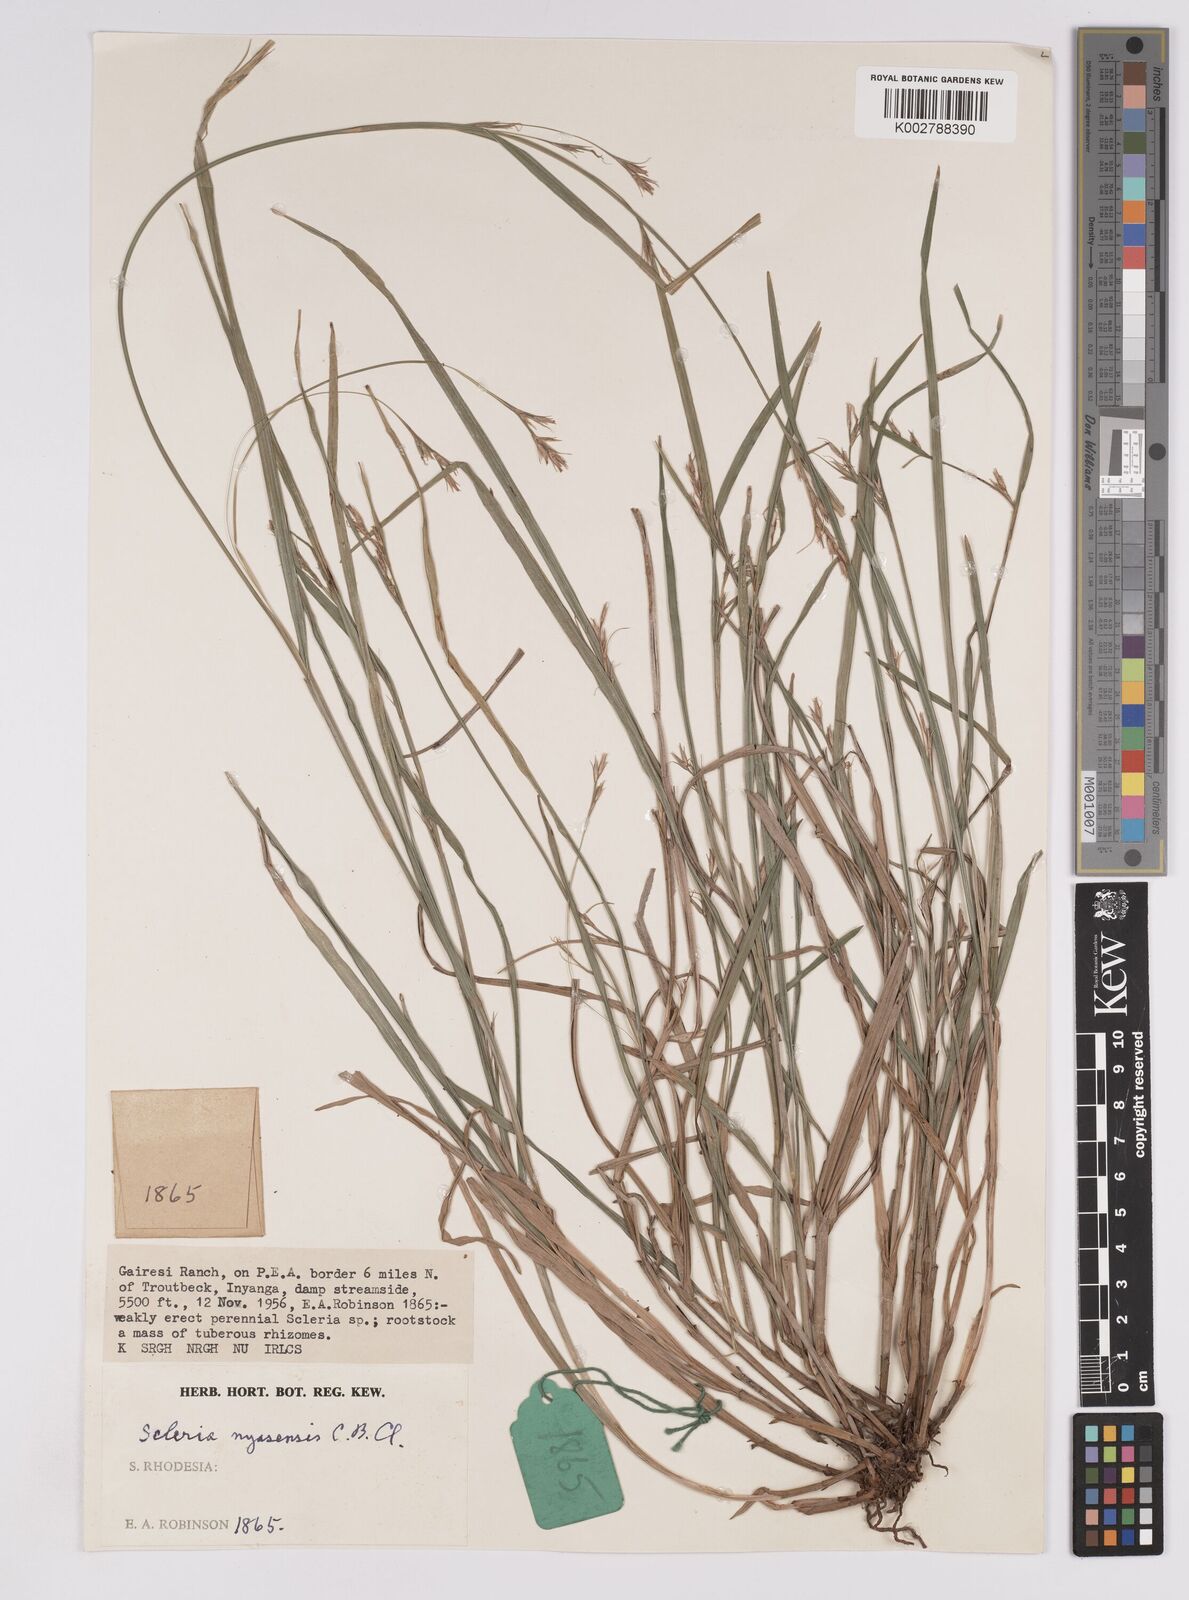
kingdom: Plantae
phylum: Tracheophyta
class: Liliopsida
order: Poales
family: Cyperaceae
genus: Scleria
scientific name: Scleria nyasensis
